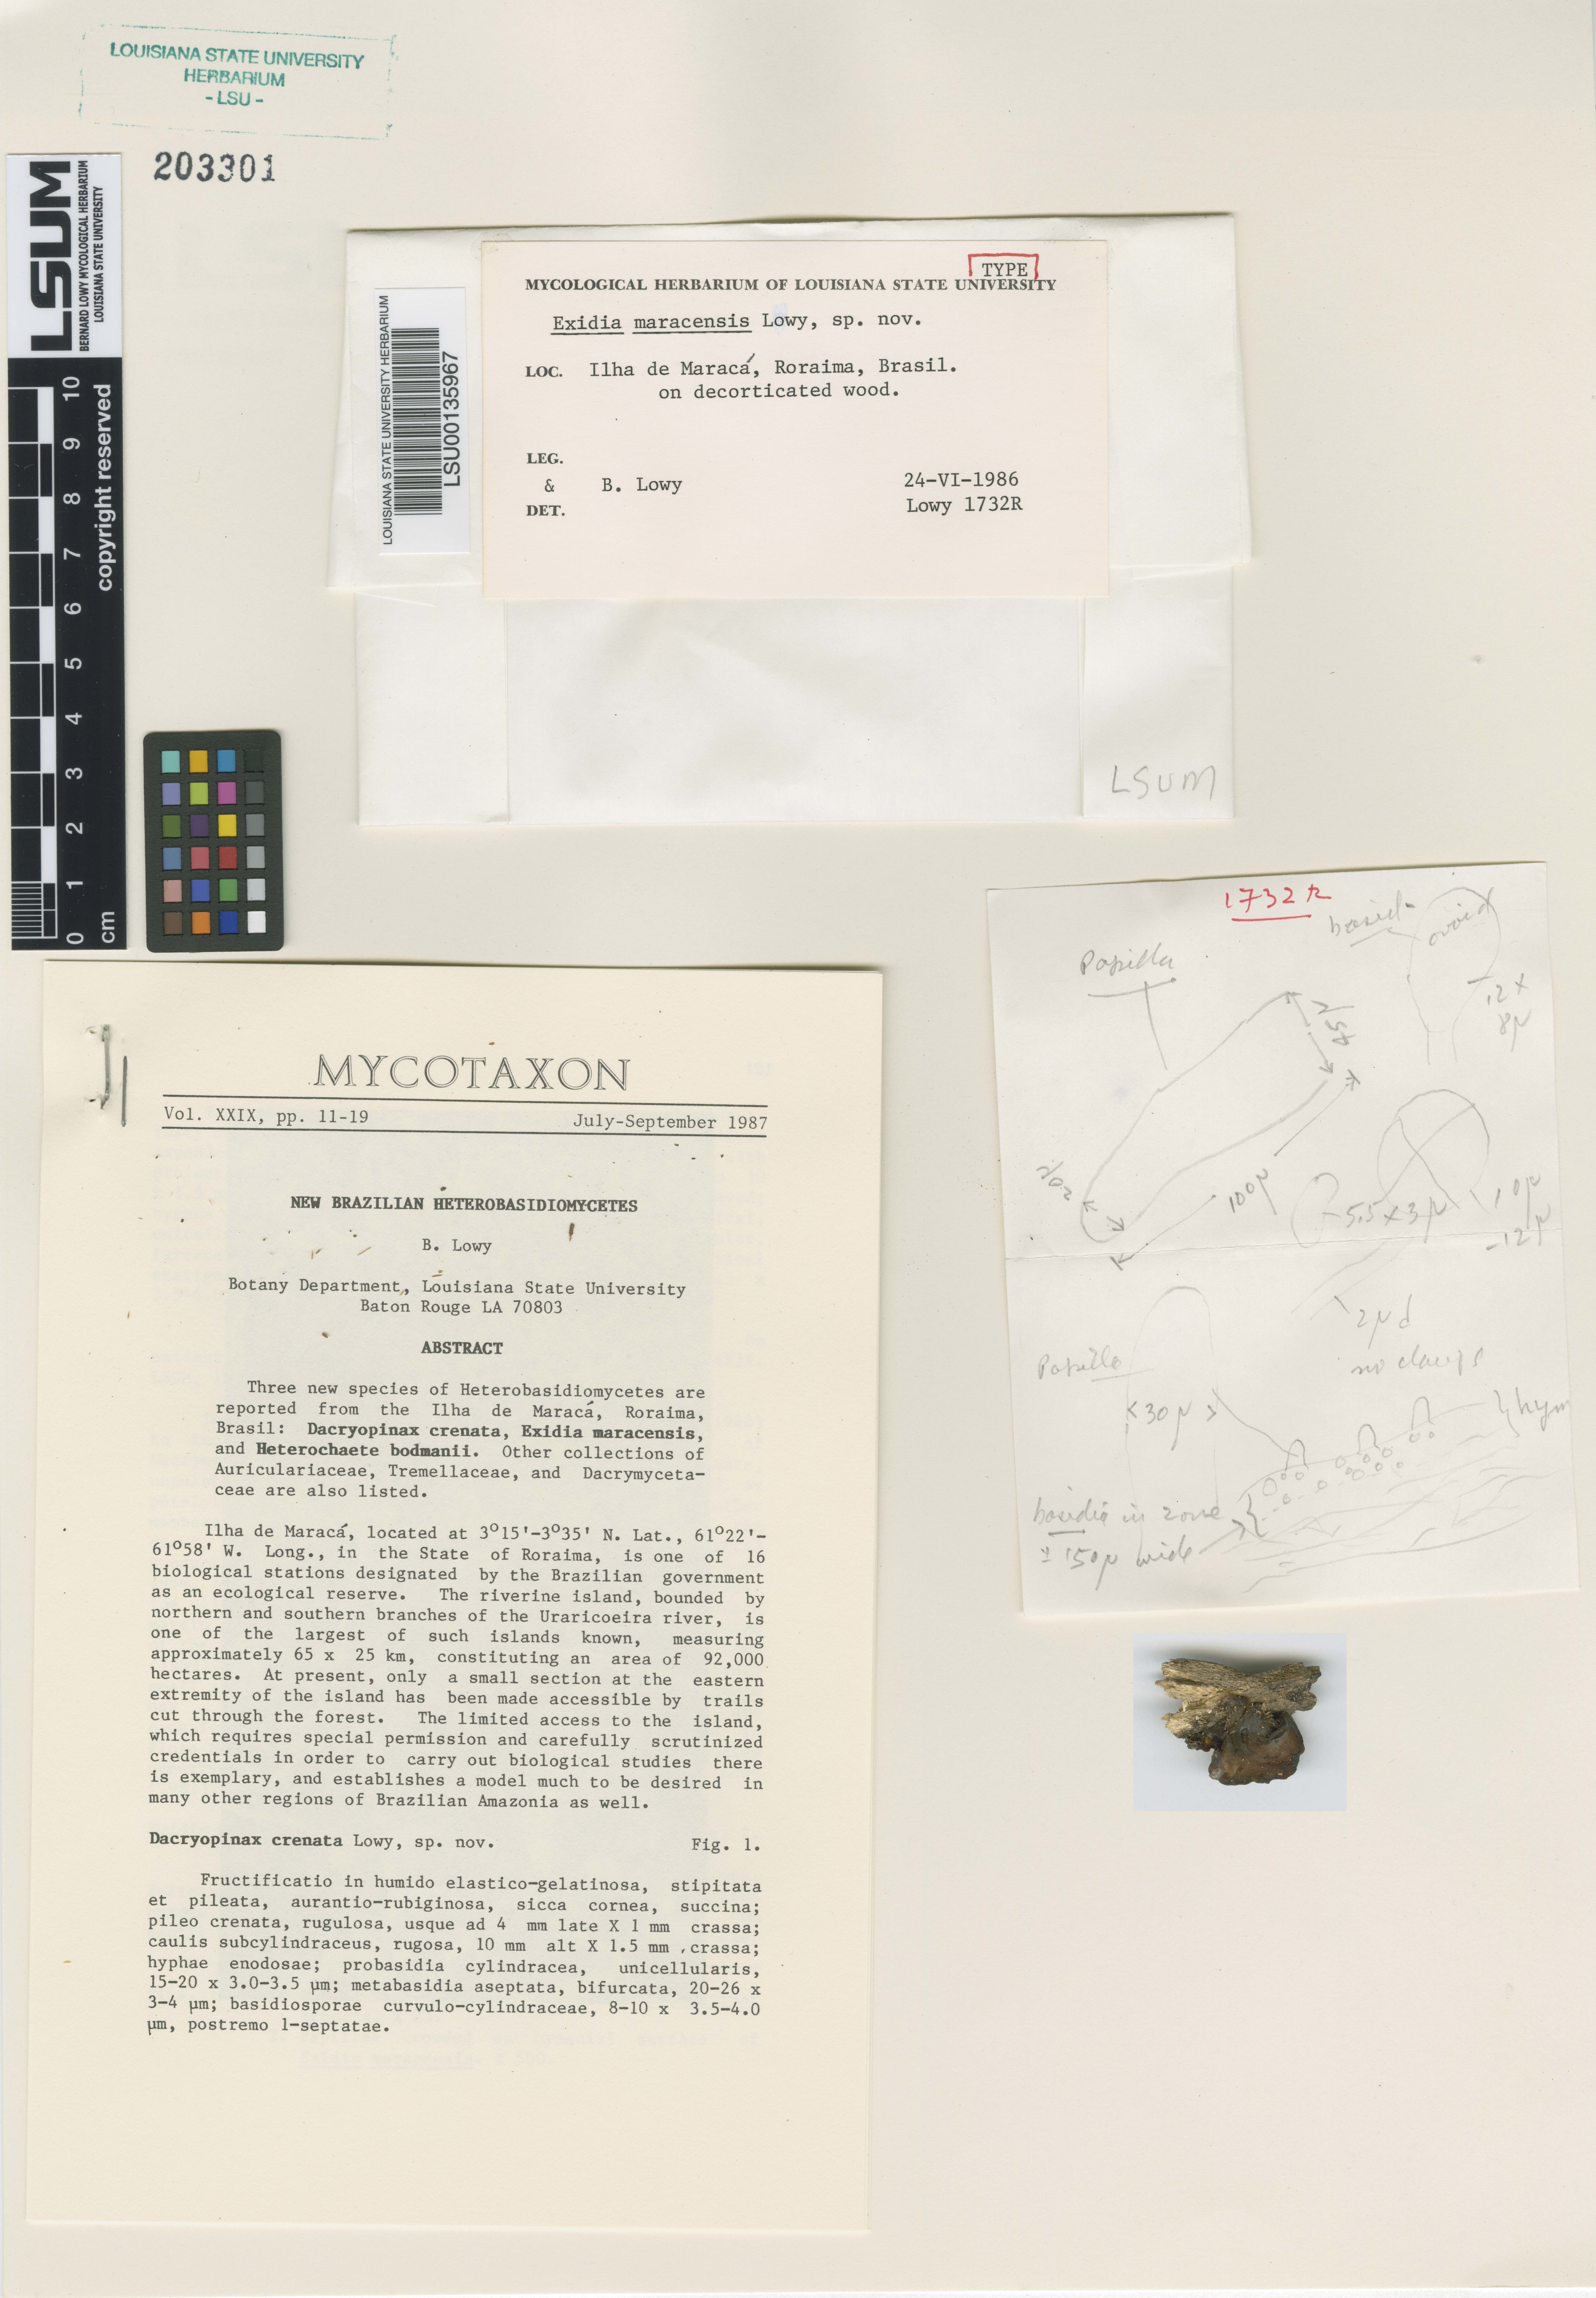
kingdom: Fungi
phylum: Basidiomycota
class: Agaricomycetes
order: Auriculariales
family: Auriculariaceae
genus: Exidia
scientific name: Exidia maracensis
